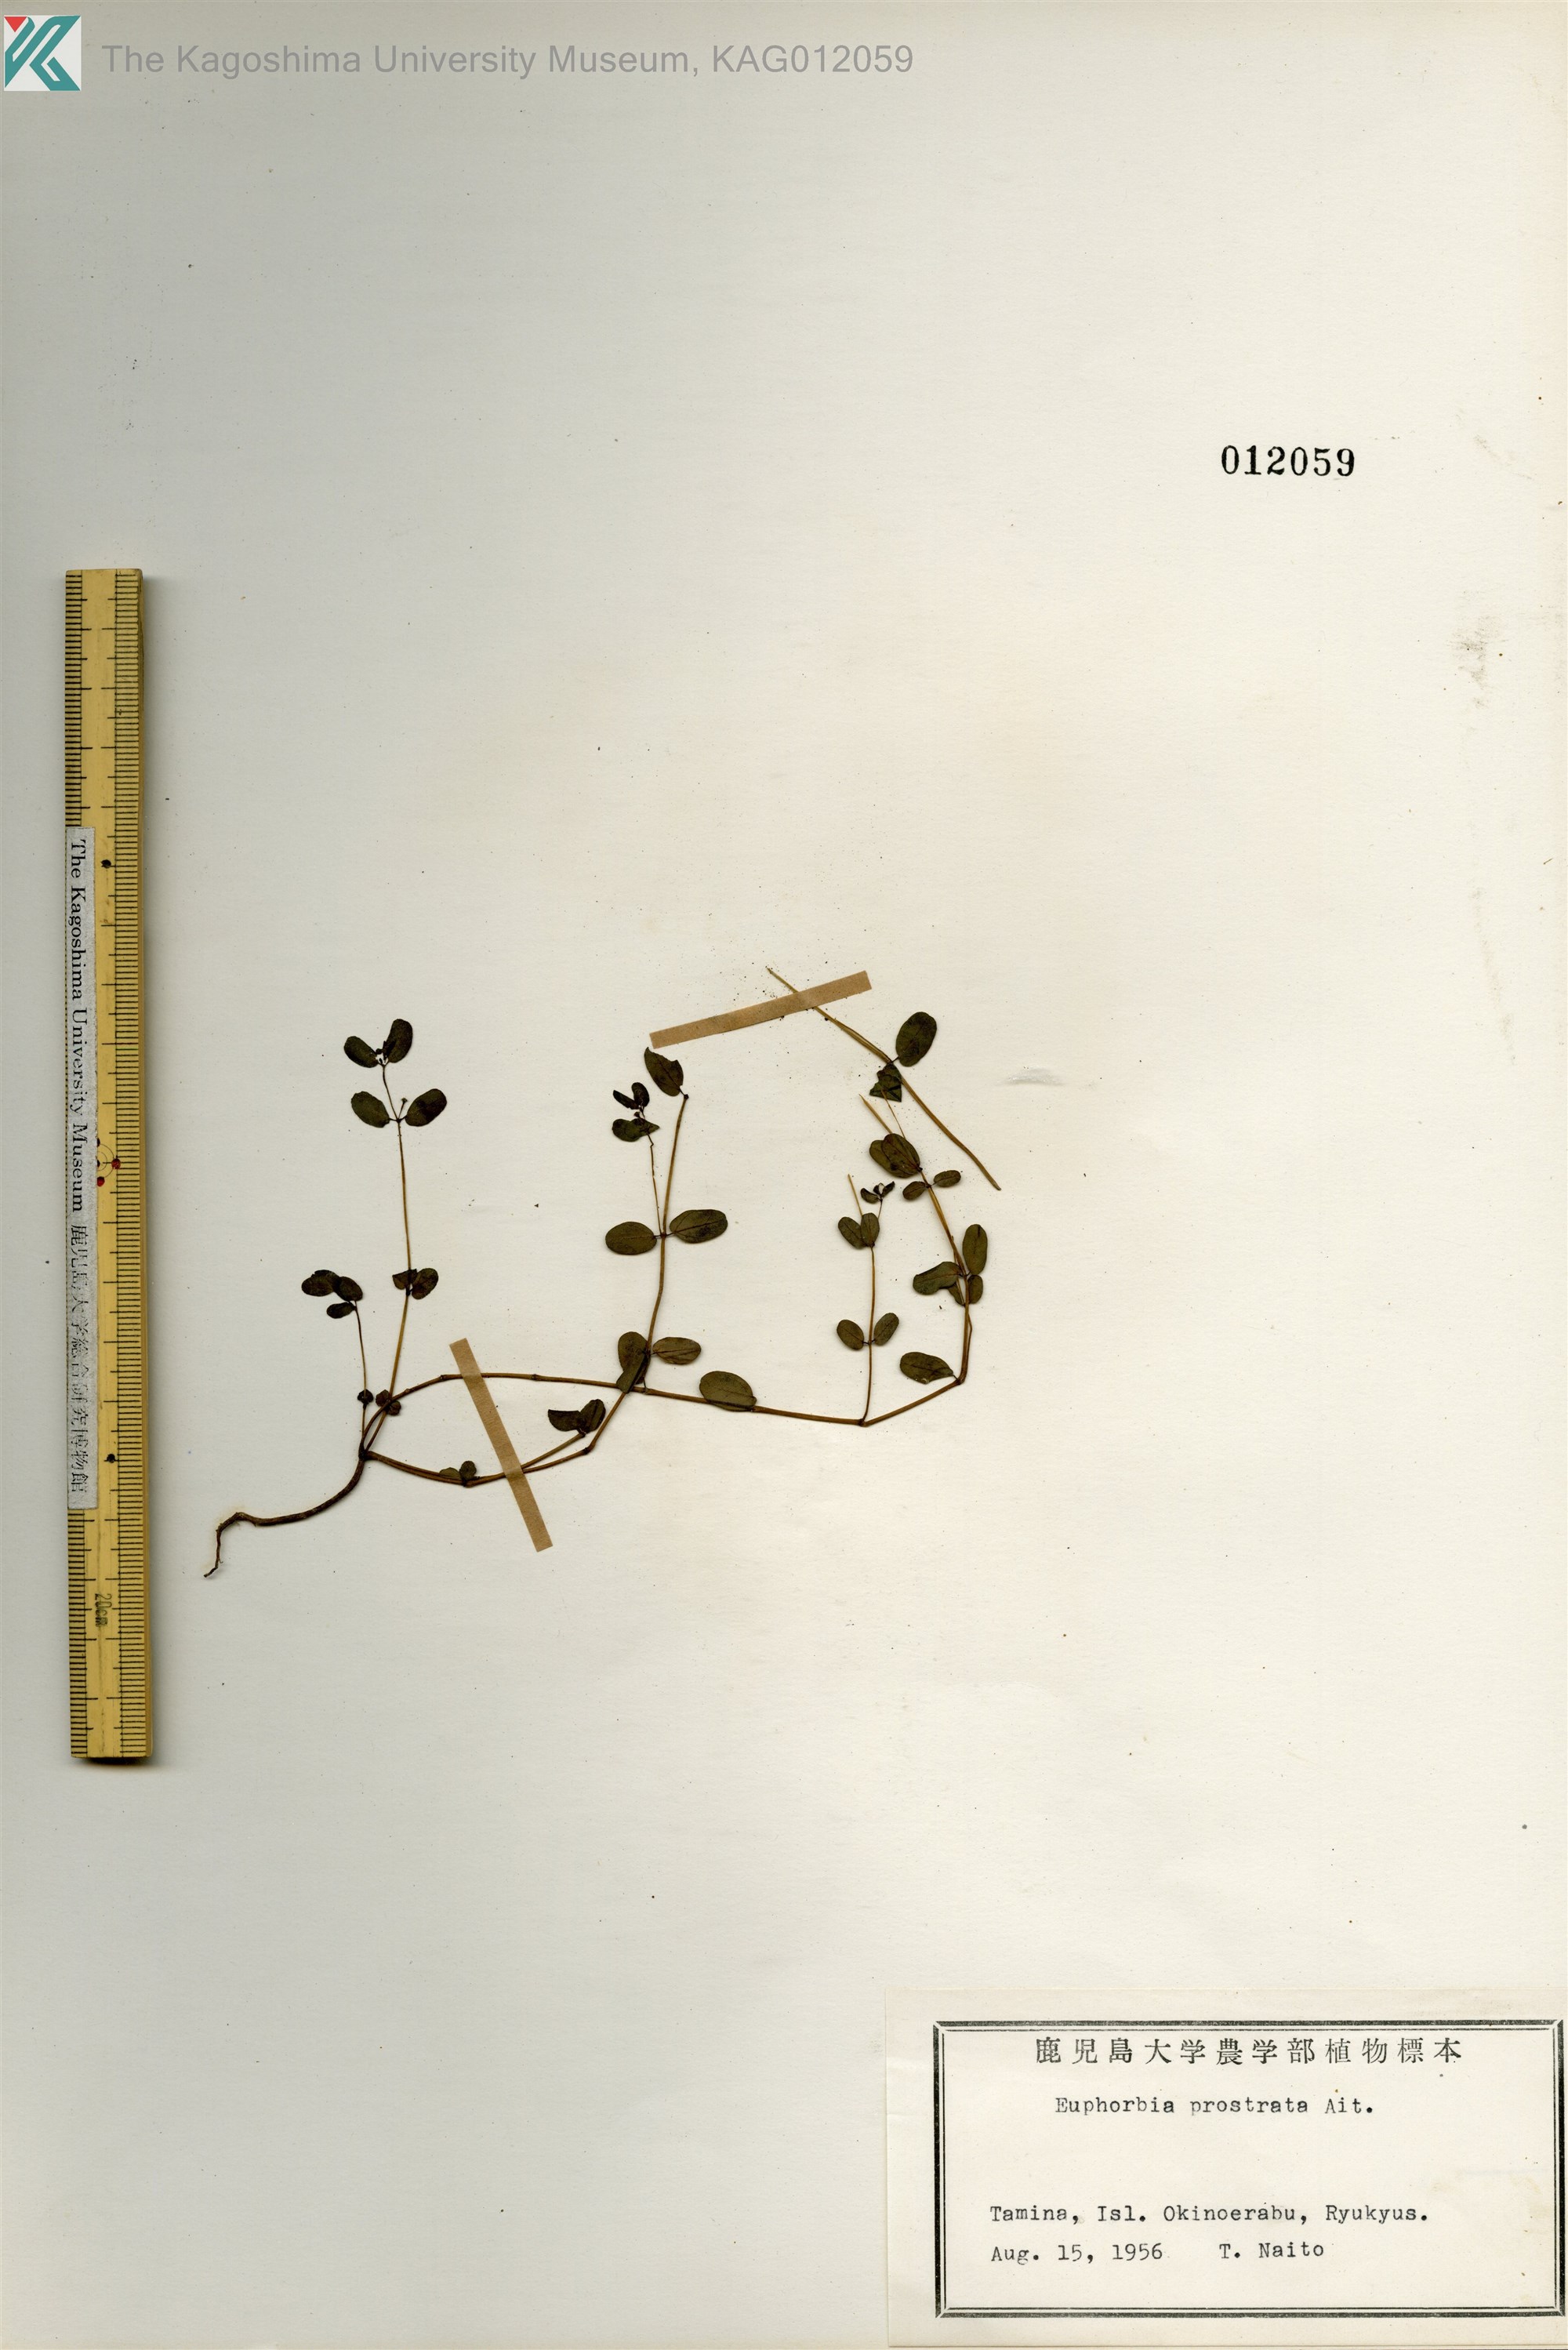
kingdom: Plantae
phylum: Tracheophyta
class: Magnoliopsida
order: Malpighiales
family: Euphorbiaceae
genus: Euphorbia
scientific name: Euphorbia liukiuensis
